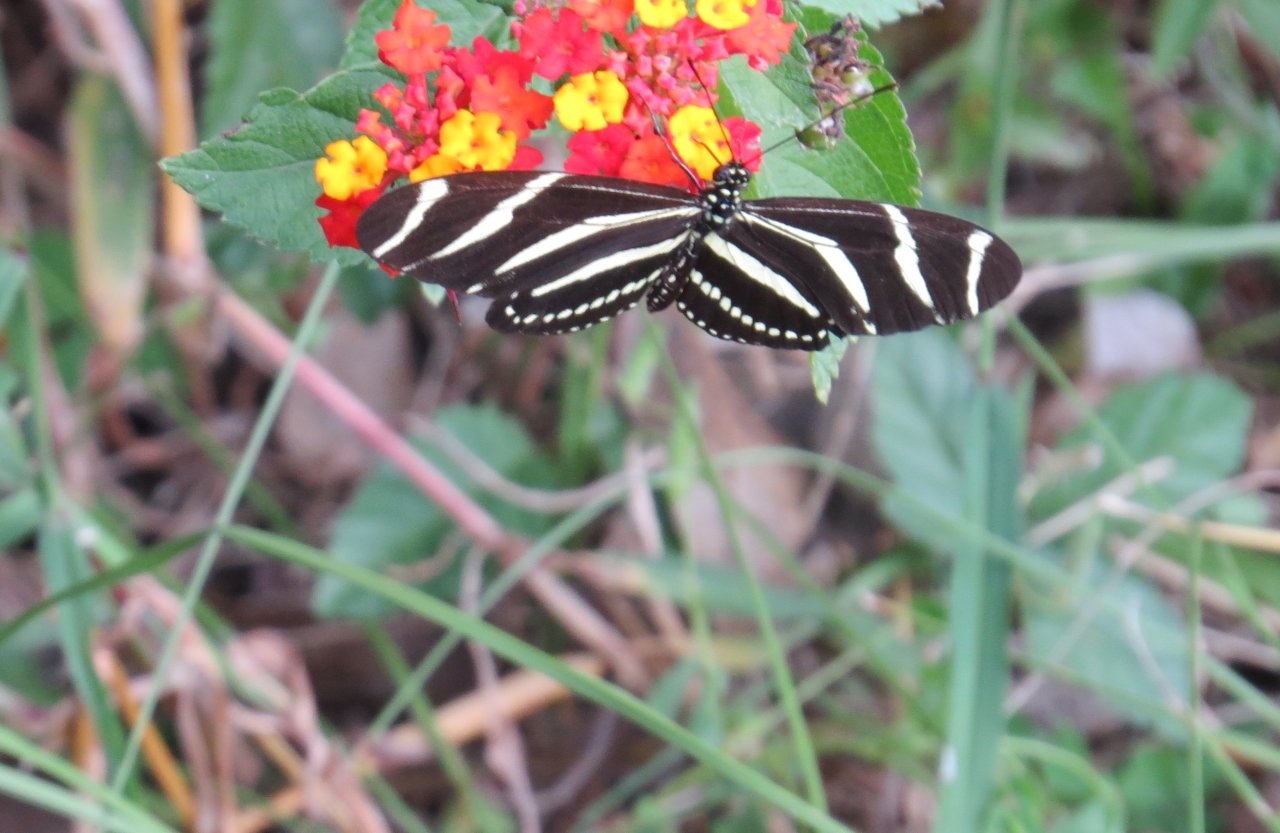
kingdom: Animalia
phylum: Arthropoda
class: Insecta
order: Lepidoptera
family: Nymphalidae
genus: Heliconius
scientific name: Heliconius charithonia
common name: Zebra Longwing
